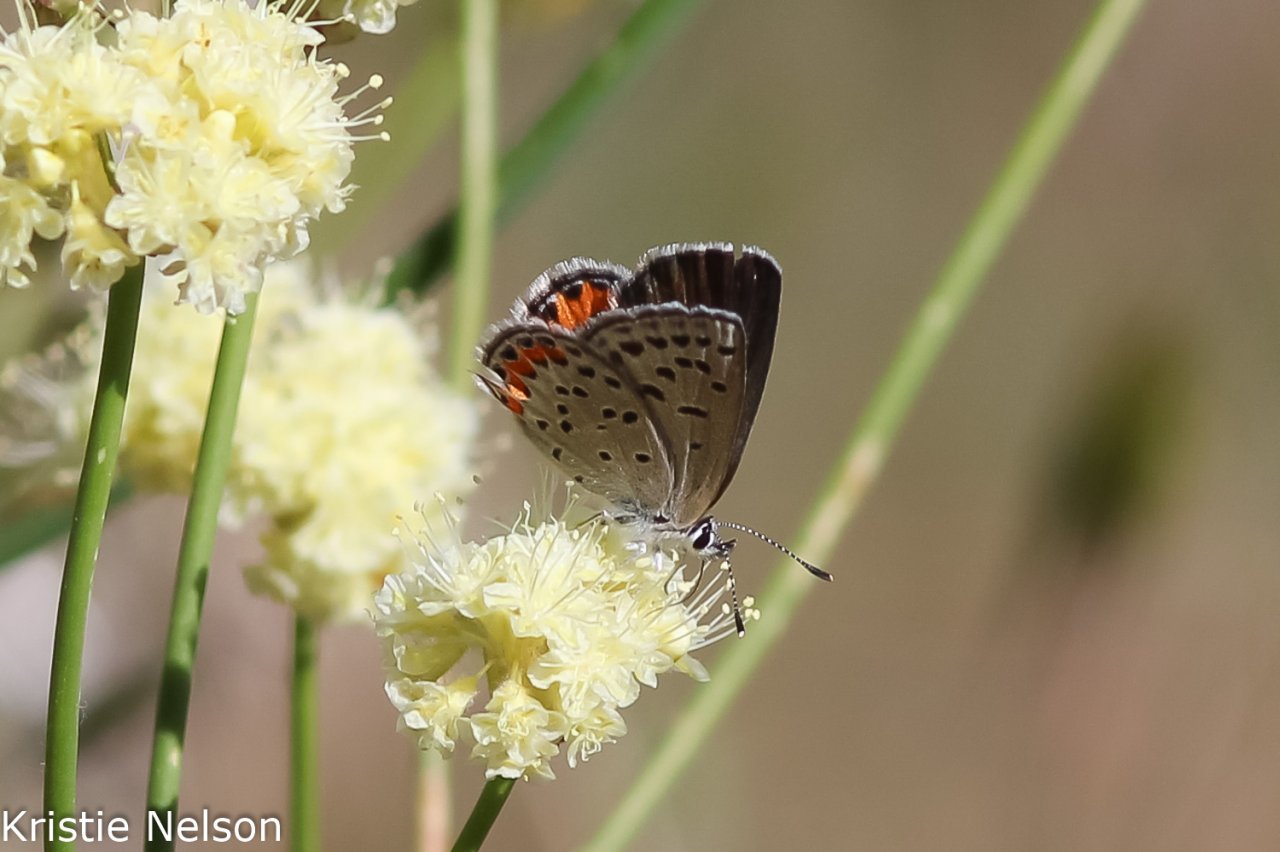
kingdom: Animalia
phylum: Arthropoda
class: Insecta
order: Lepidoptera
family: Lycaenidae
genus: Plebejus
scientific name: Plebejus
